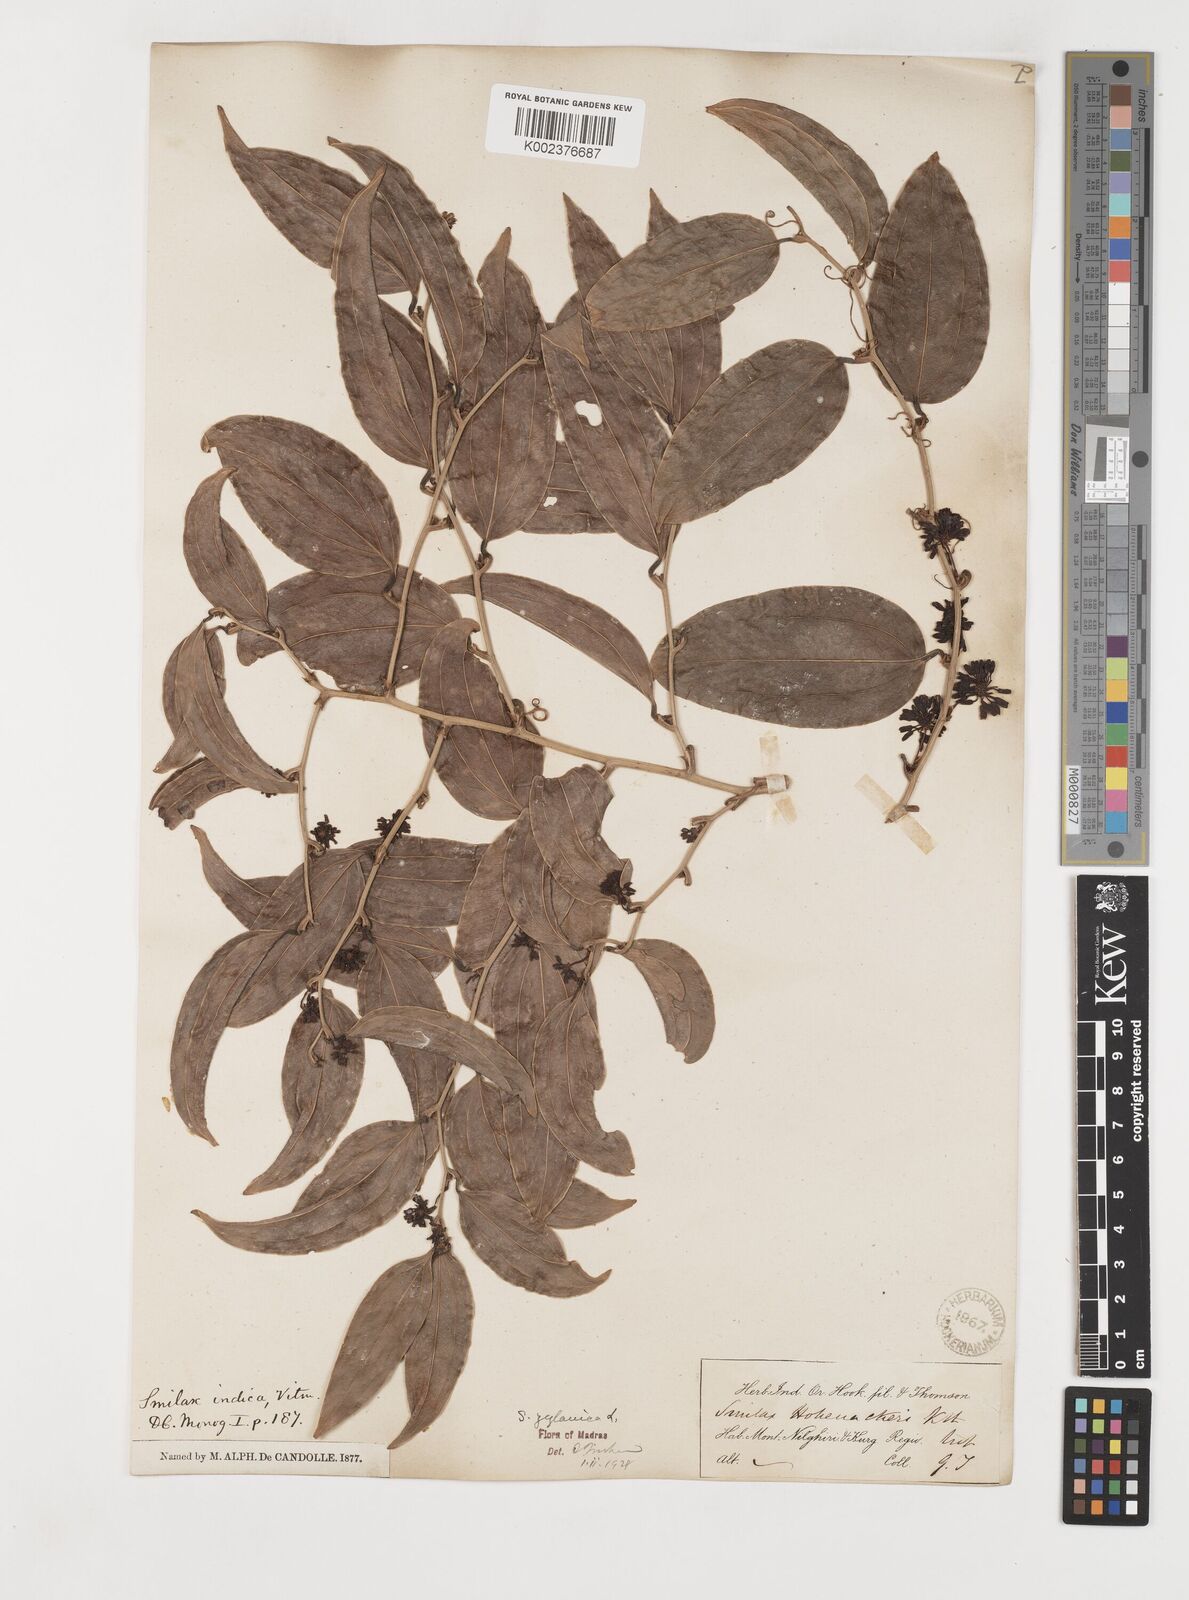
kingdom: Plantae
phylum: Tracheophyta
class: Liliopsida
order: Liliales
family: Smilacaceae
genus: Smilax
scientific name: Smilax zeylanica
